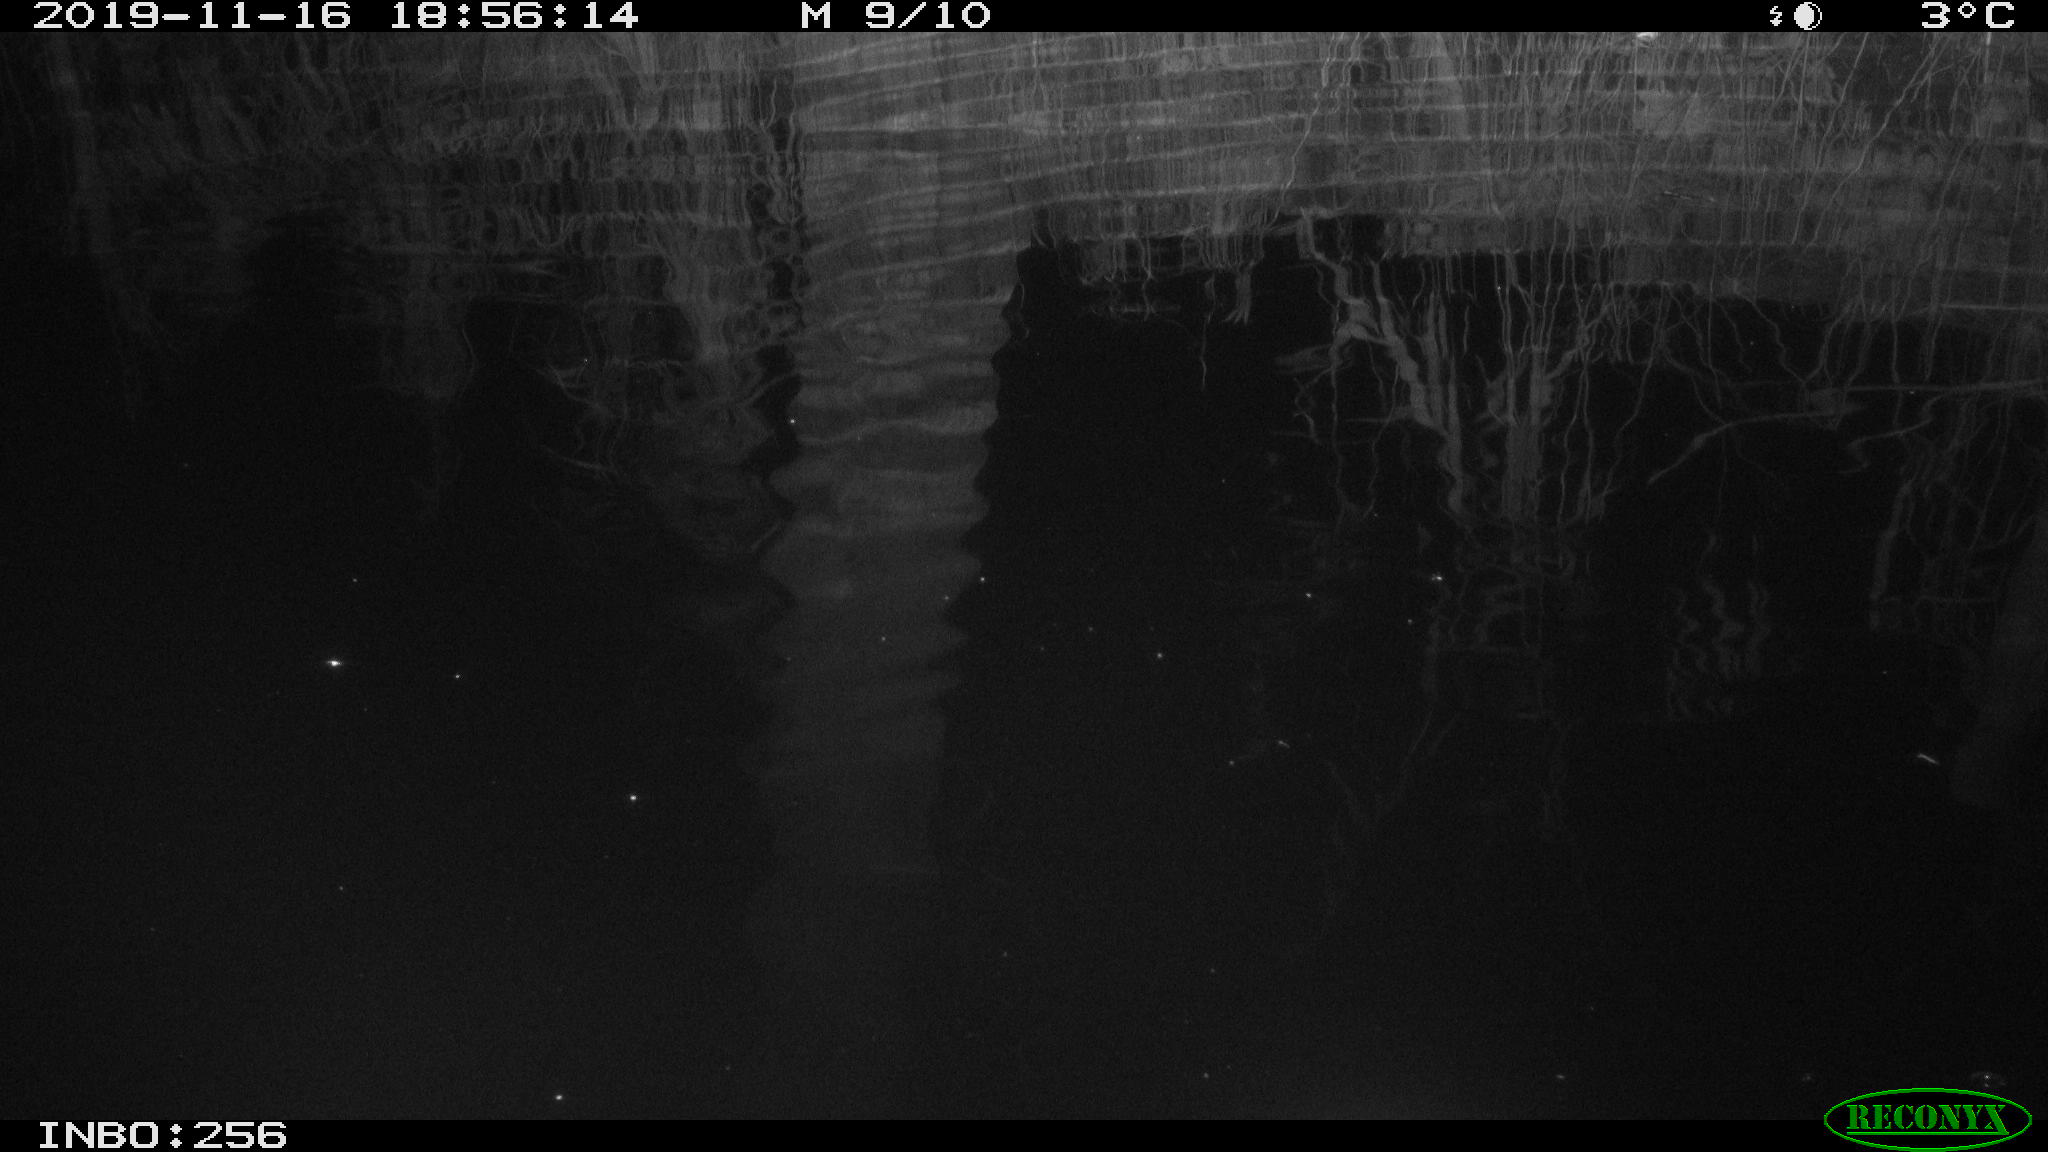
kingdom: Animalia
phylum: Chordata
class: Mammalia
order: Rodentia
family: Muridae
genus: Rattus
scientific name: Rattus norvegicus
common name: Brown rat
